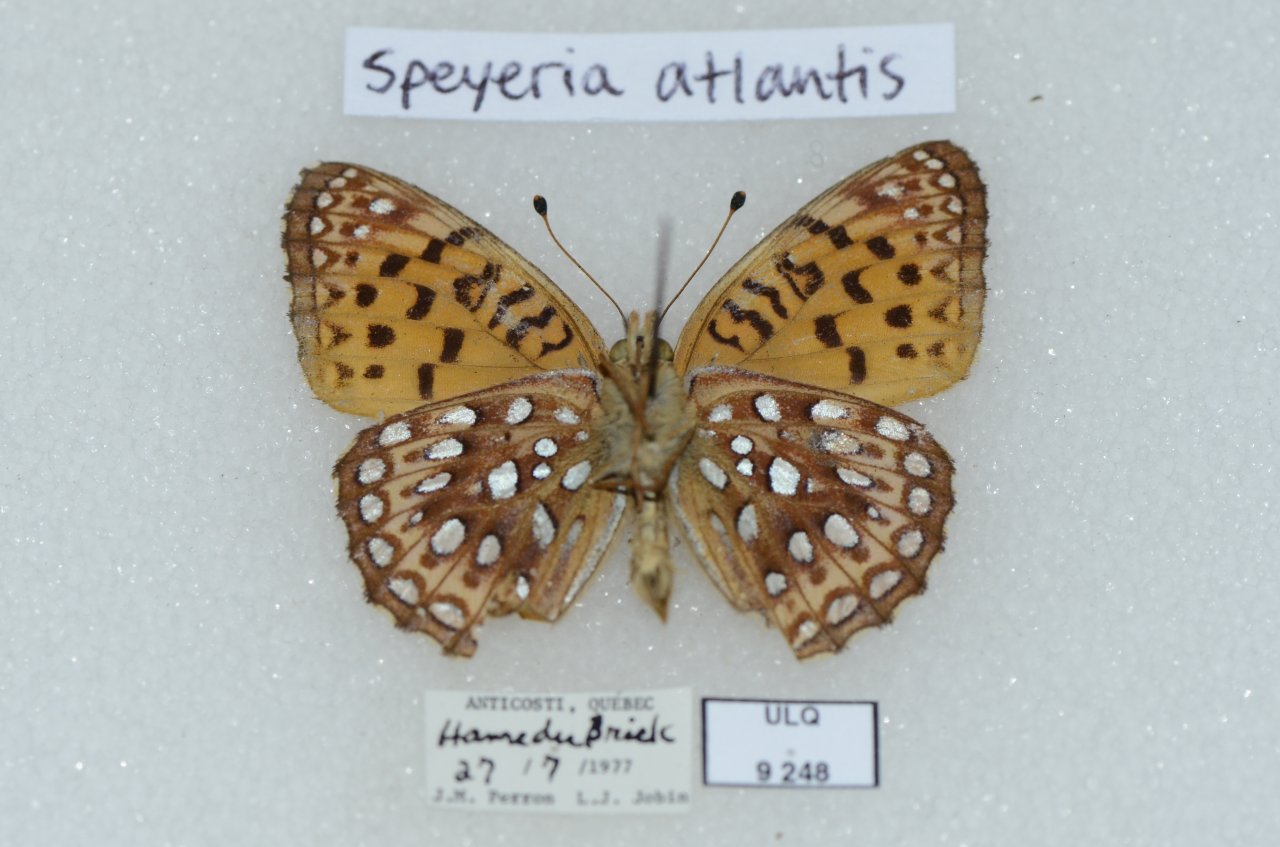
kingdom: Animalia
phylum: Arthropoda
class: Insecta
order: Lepidoptera
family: Nymphalidae
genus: Speyeria
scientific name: Speyeria atlantis
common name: Atlantis Fritillary
